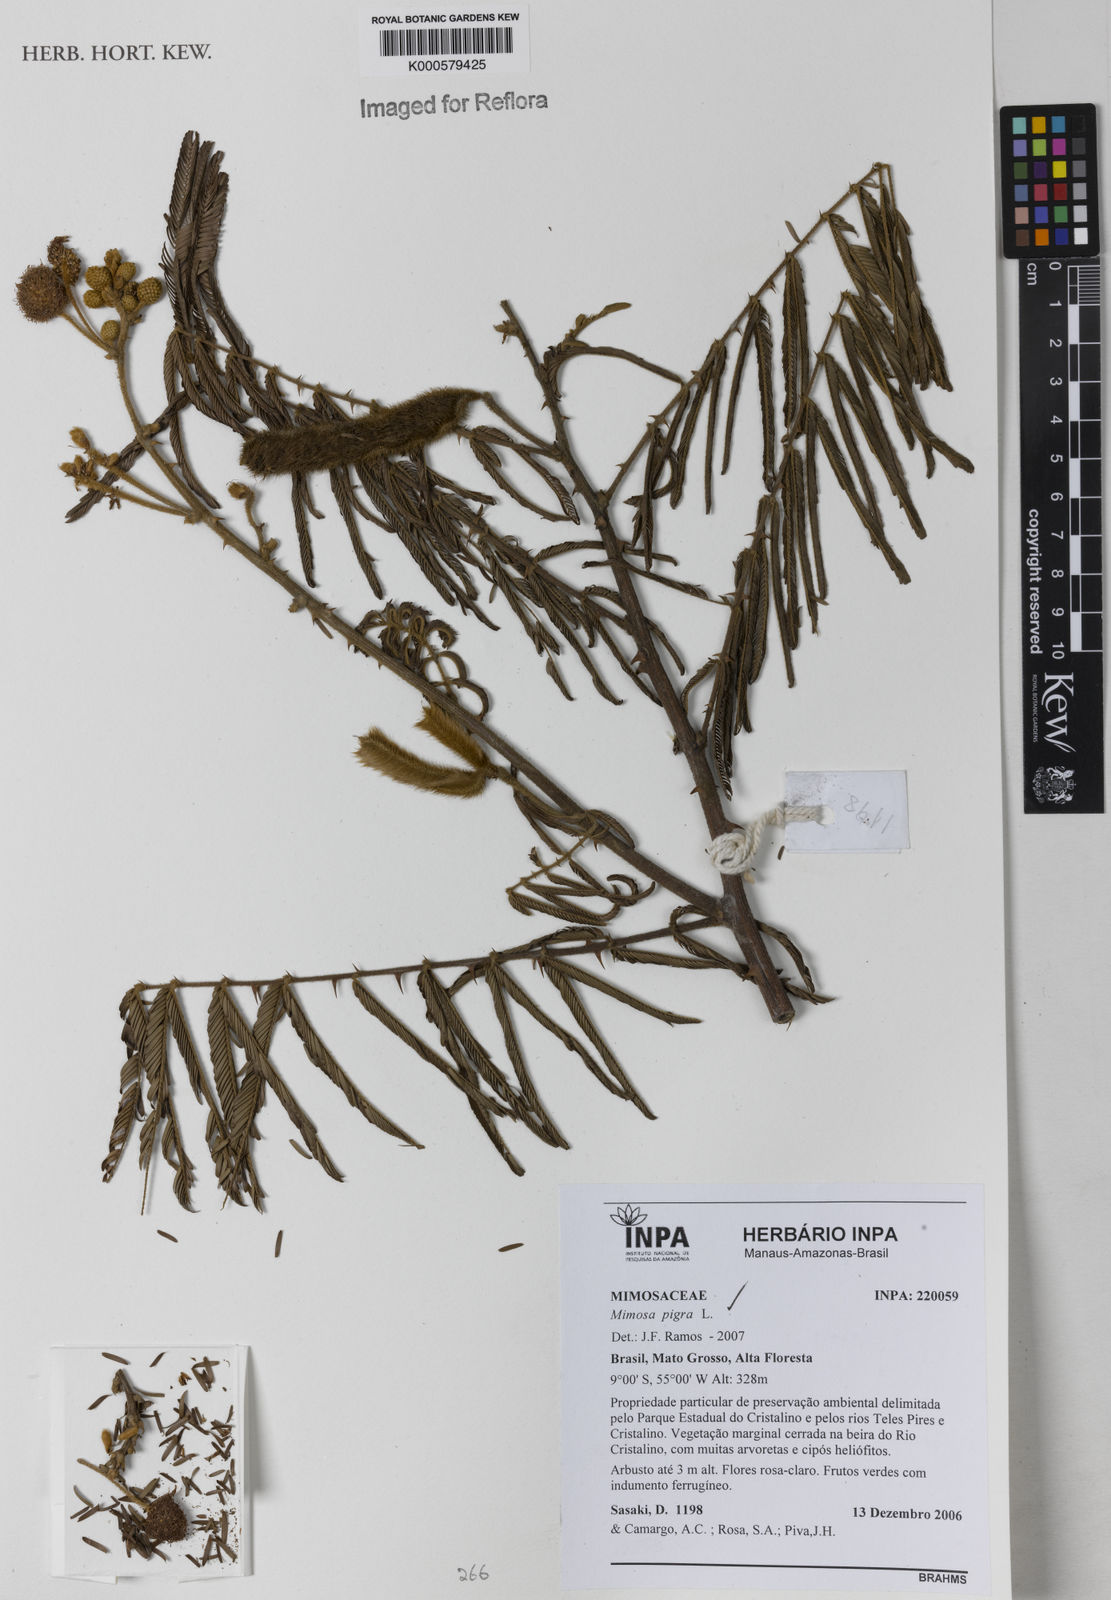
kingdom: Plantae
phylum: Tracheophyta
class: Magnoliopsida
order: Fabales
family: Fabaceae
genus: Mimosa
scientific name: Mimosa pigra
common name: Black mimosa
